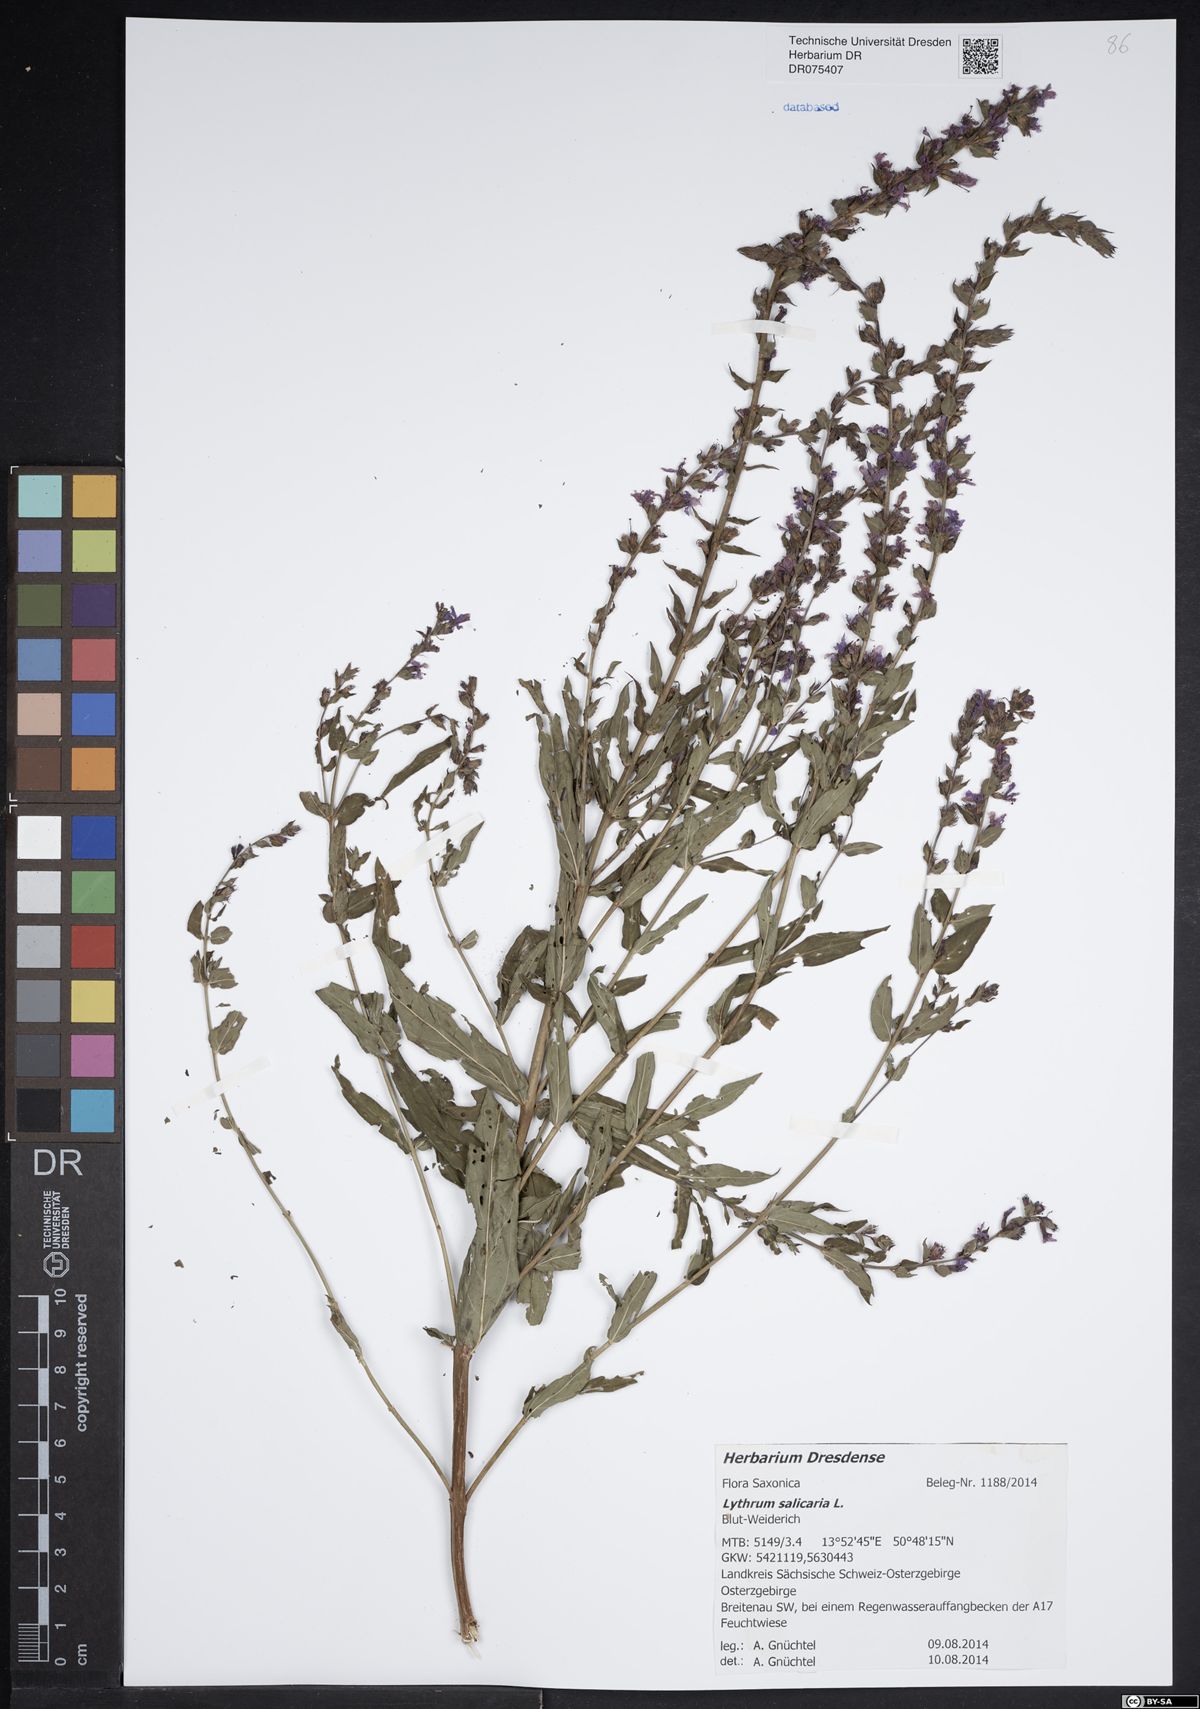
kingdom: Plantae
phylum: Tracheophyta
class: Magnoliopsida
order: Myrtales
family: Lythraceae
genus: Lythrum
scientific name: Lythrum salicaria
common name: Purple loosestrife
